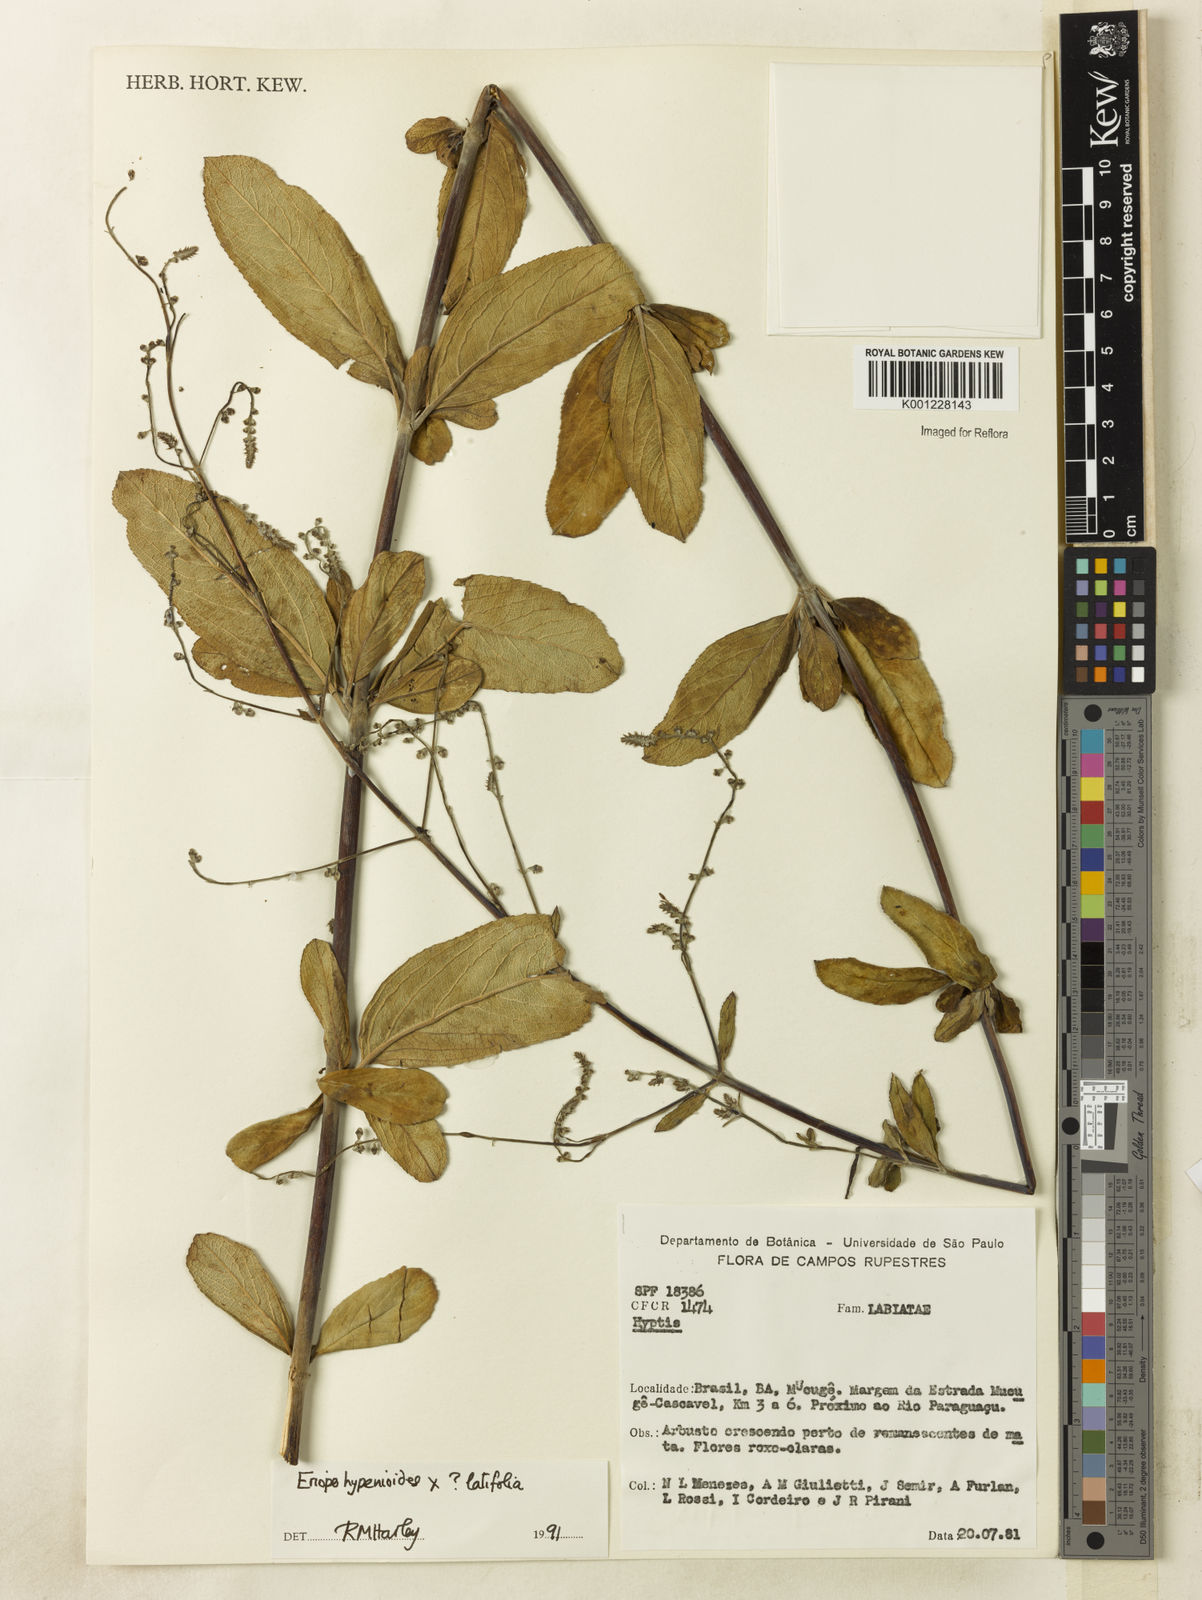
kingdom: Plantae
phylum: Tracheophyta
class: Magnoliopsida
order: Lamiales
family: Lamiaceae
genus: Eriope
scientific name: Eriope
